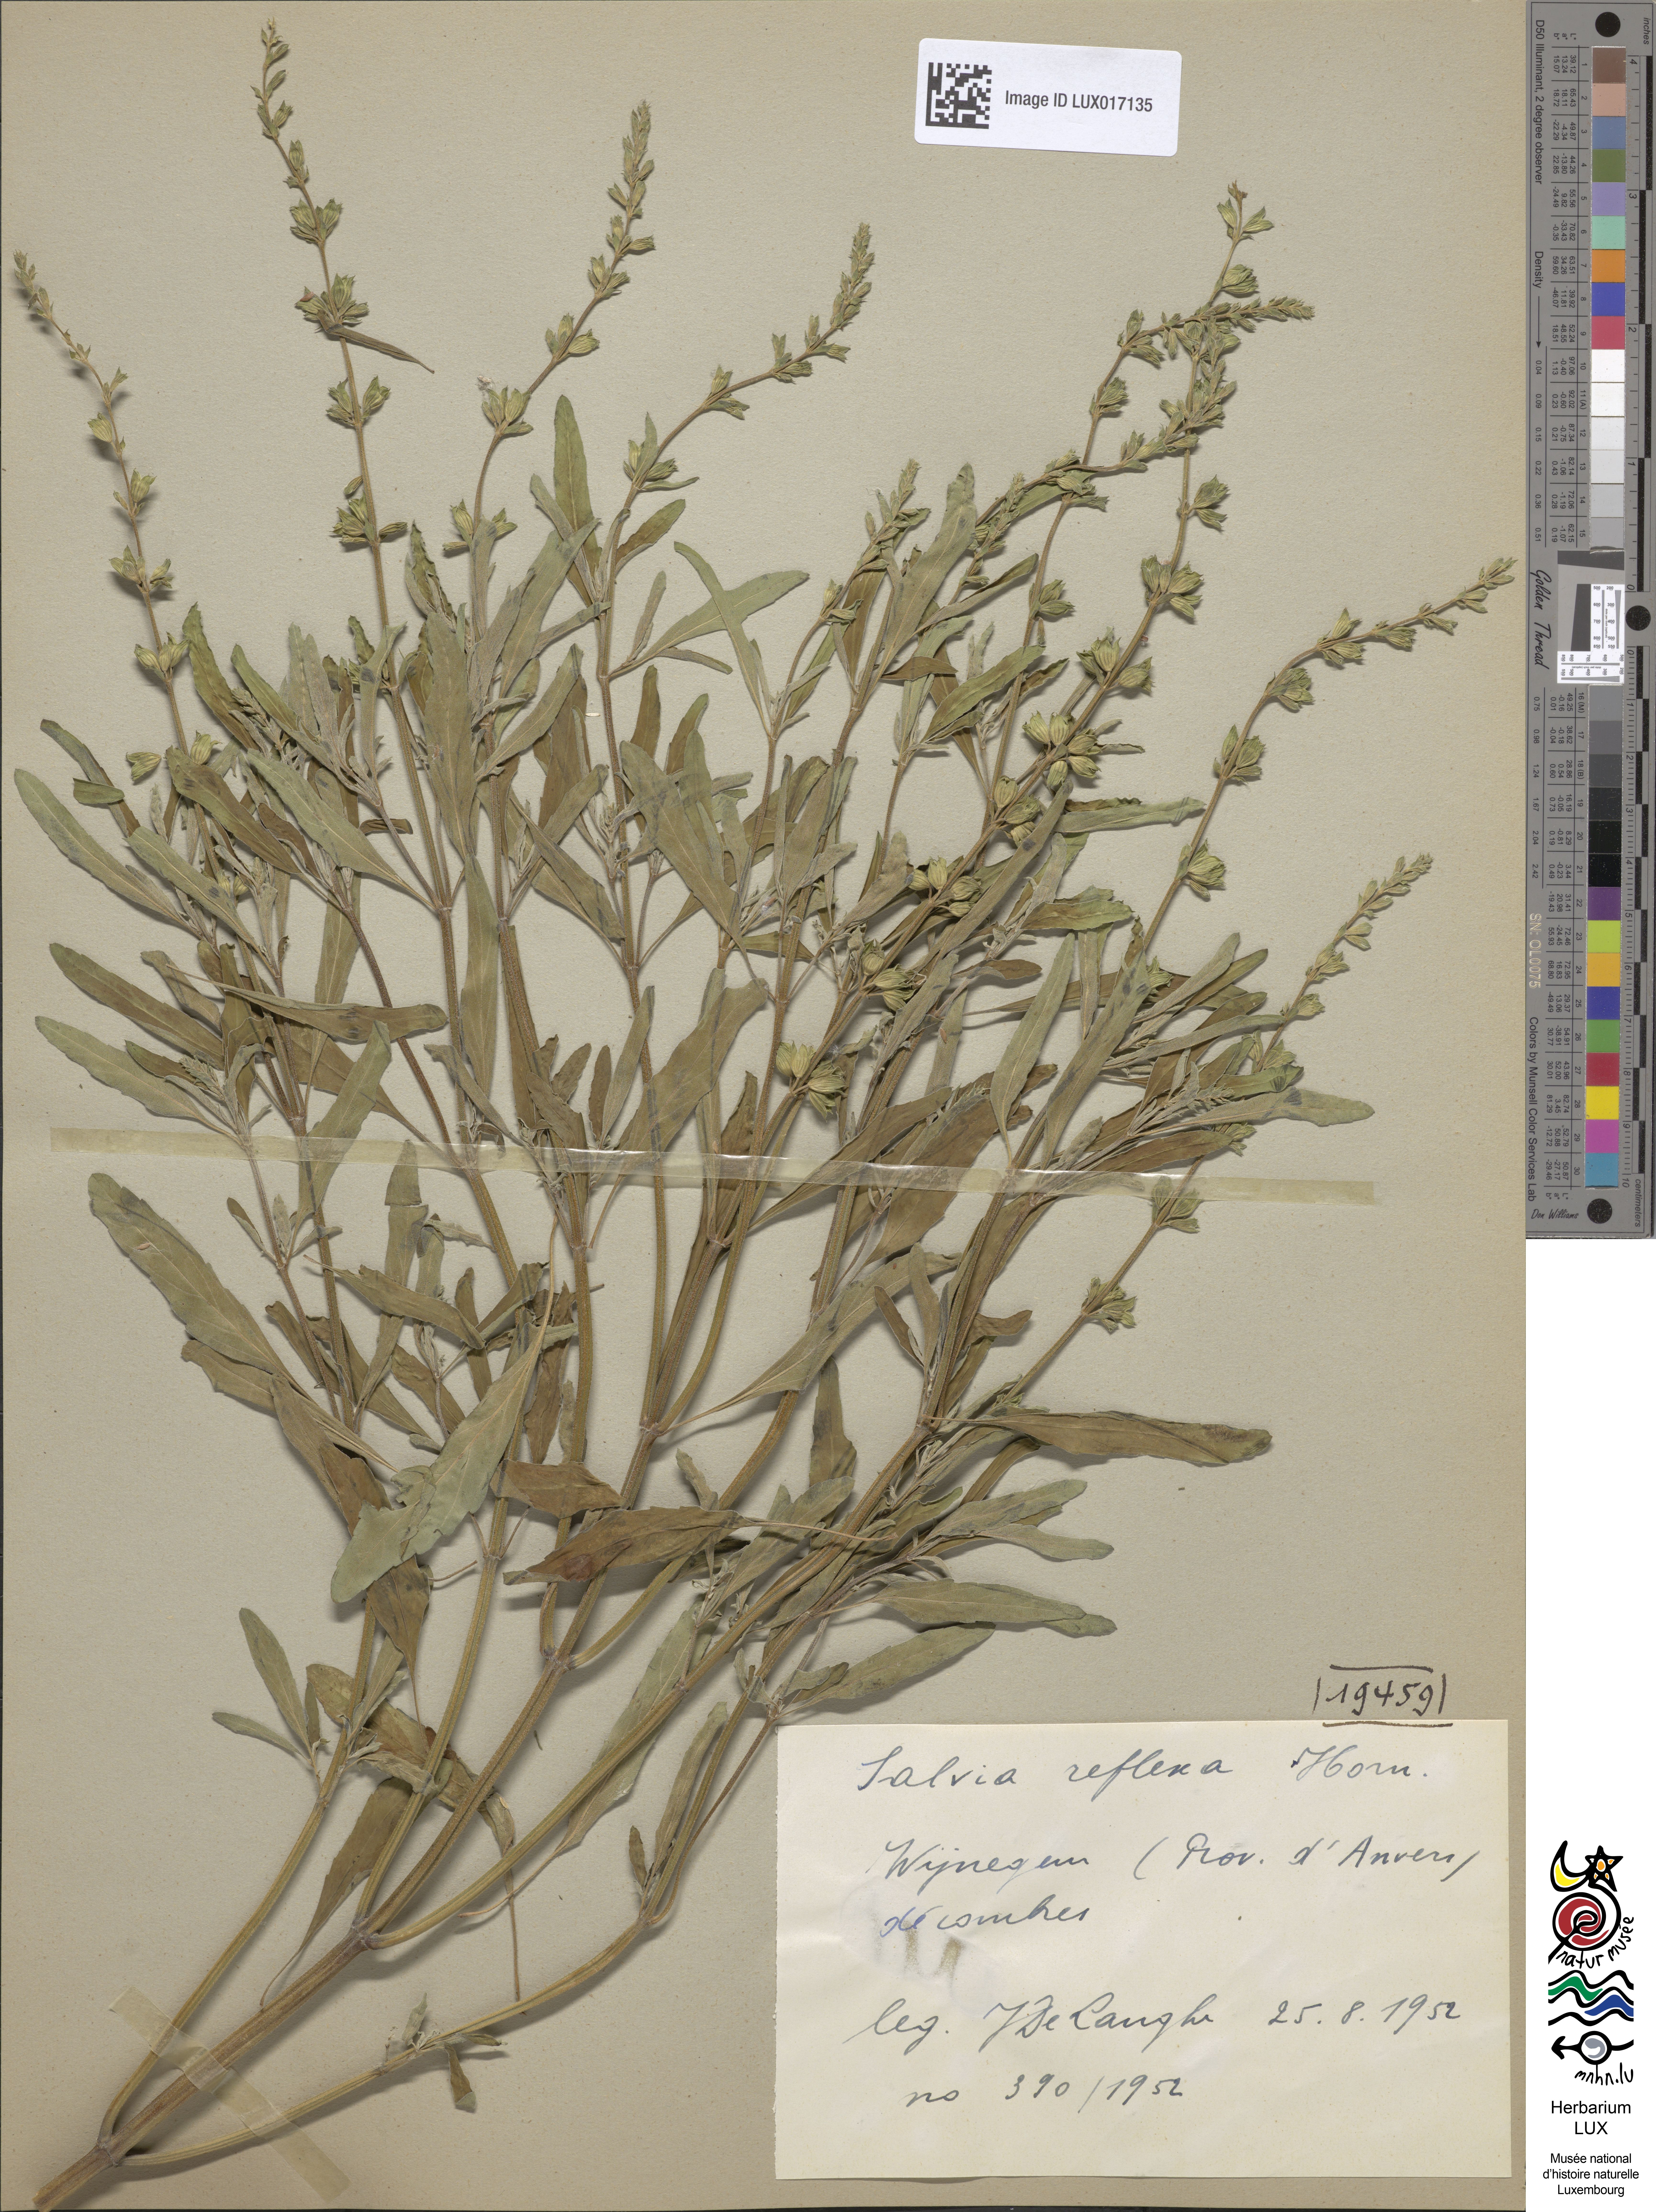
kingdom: Plantae
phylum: Tracheophyta
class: Magnoliopsida
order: Lamiales
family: Lamiaceae
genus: Salvia
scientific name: Salvia reflexa
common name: Mintweed
